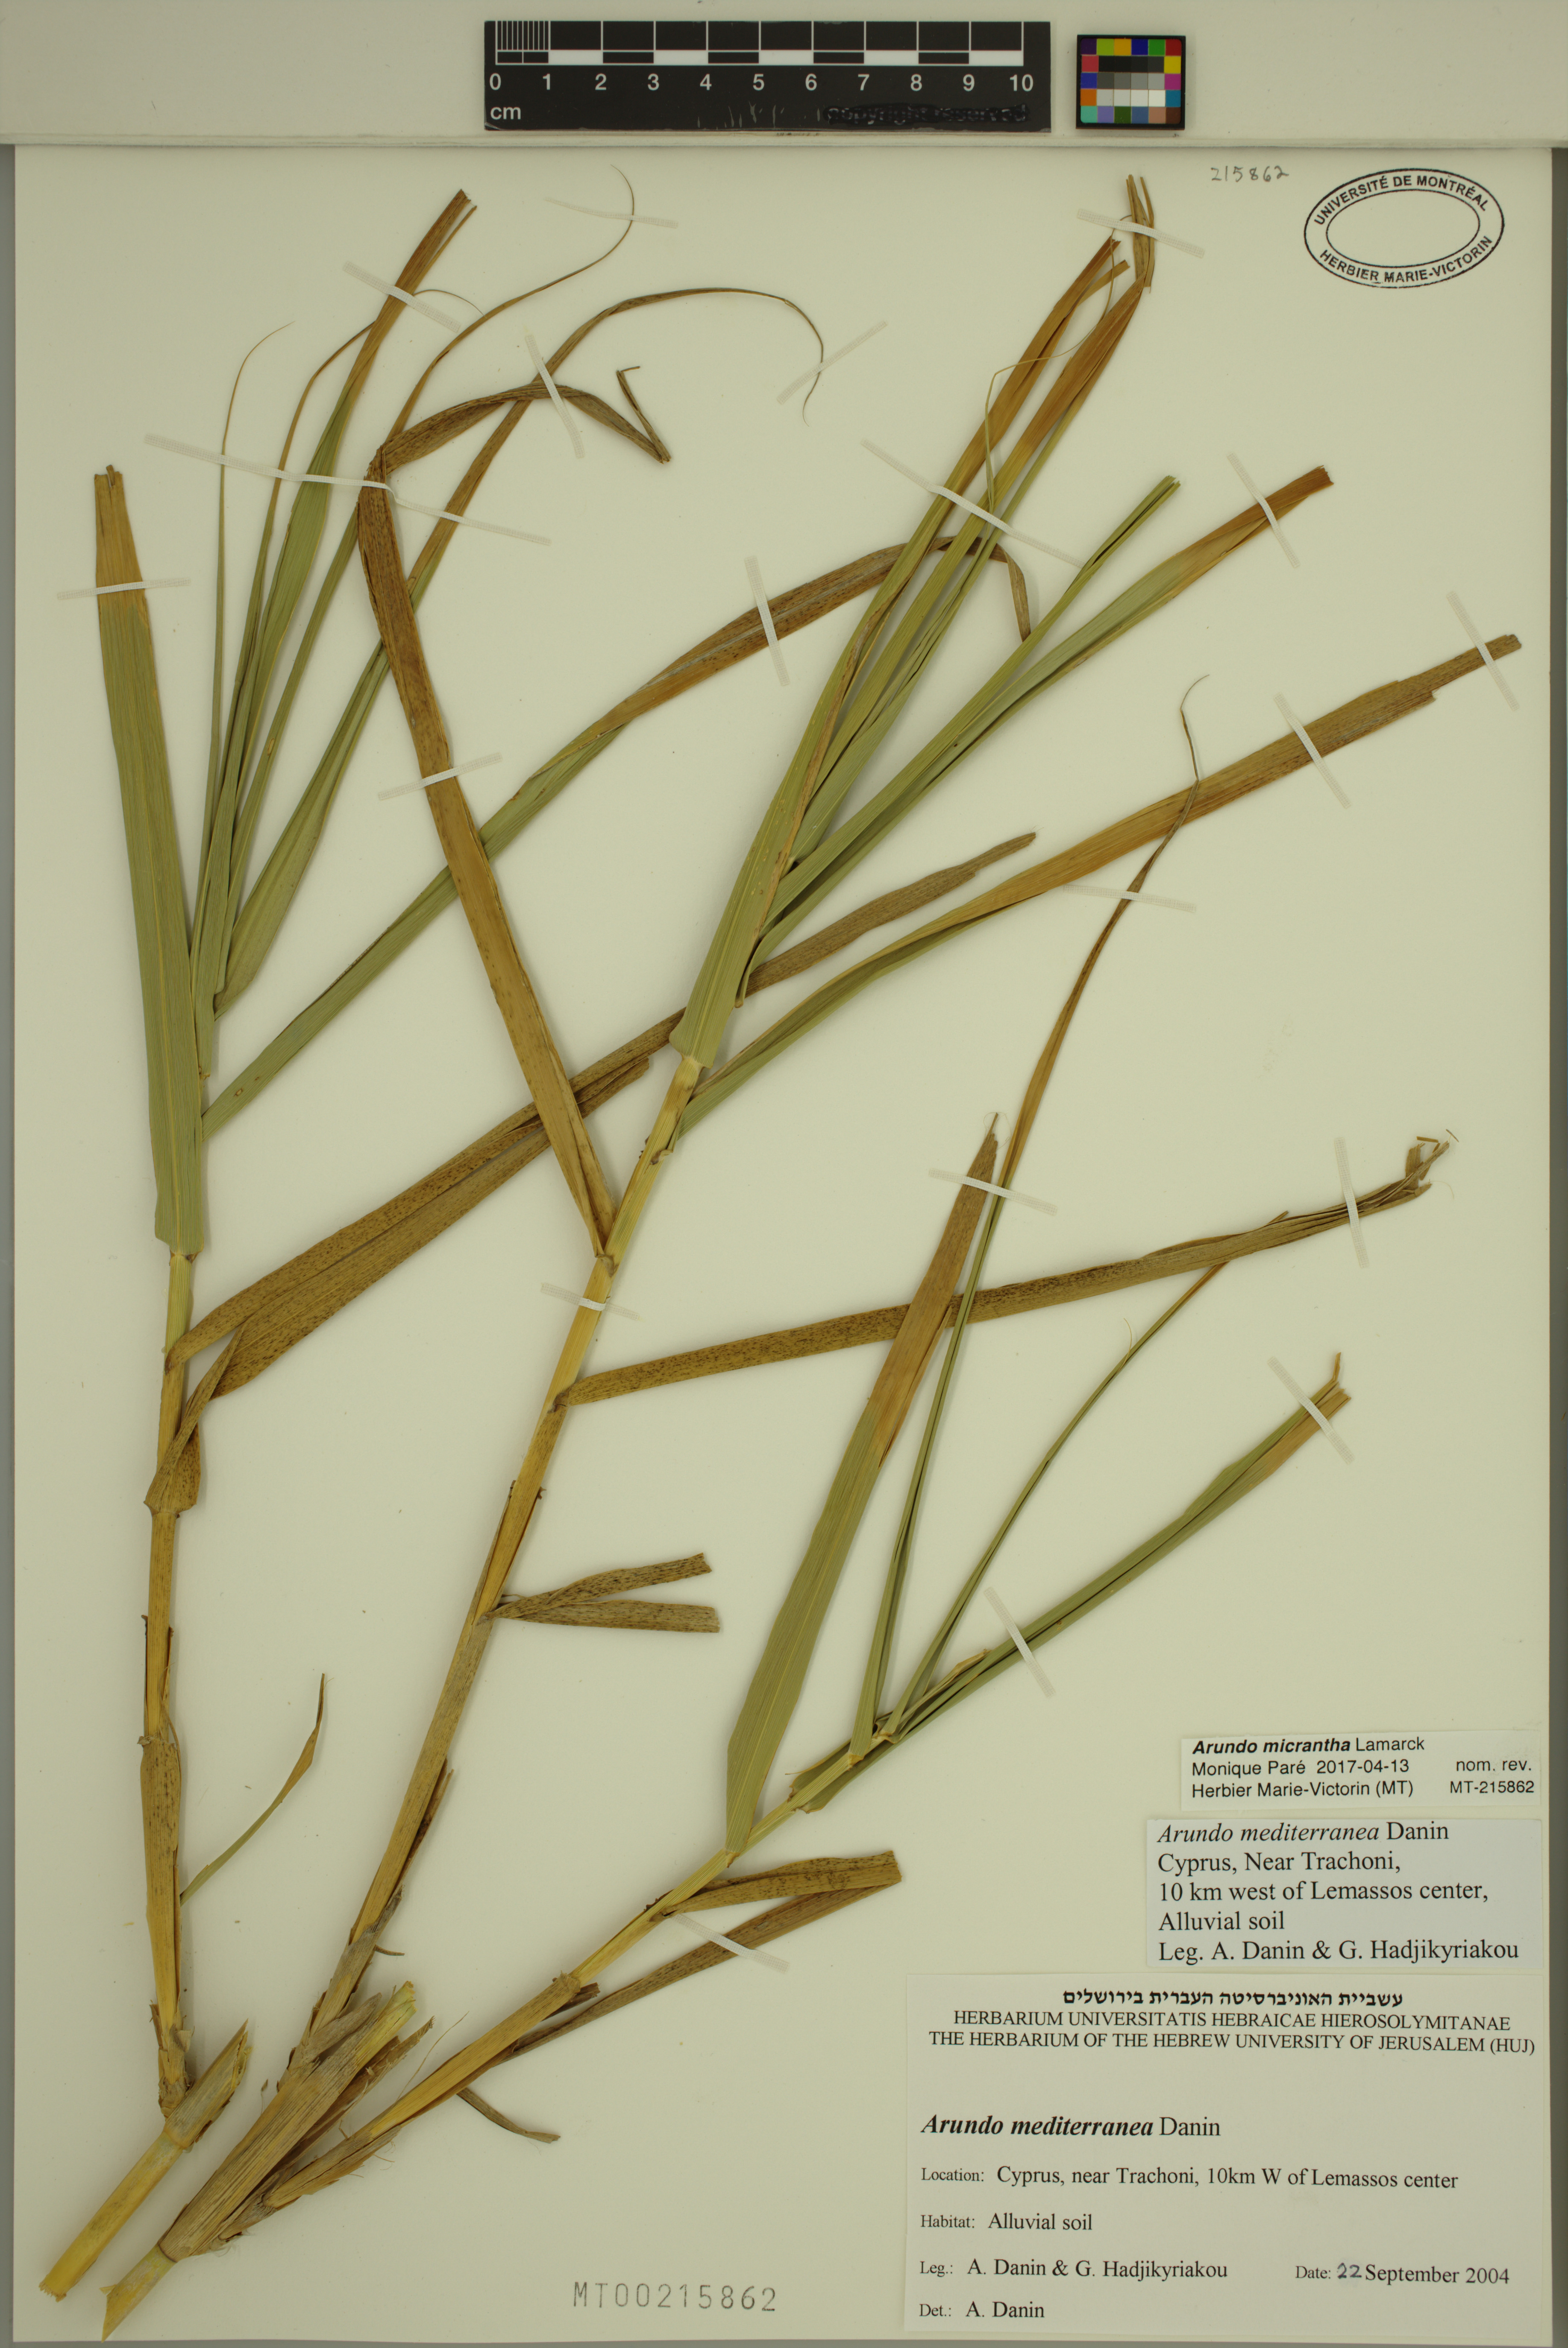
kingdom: Plantae
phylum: Tracheophyta
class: Liliopsida
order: Poales
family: Poaceae
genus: Arundo
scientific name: Arundo micrantha
